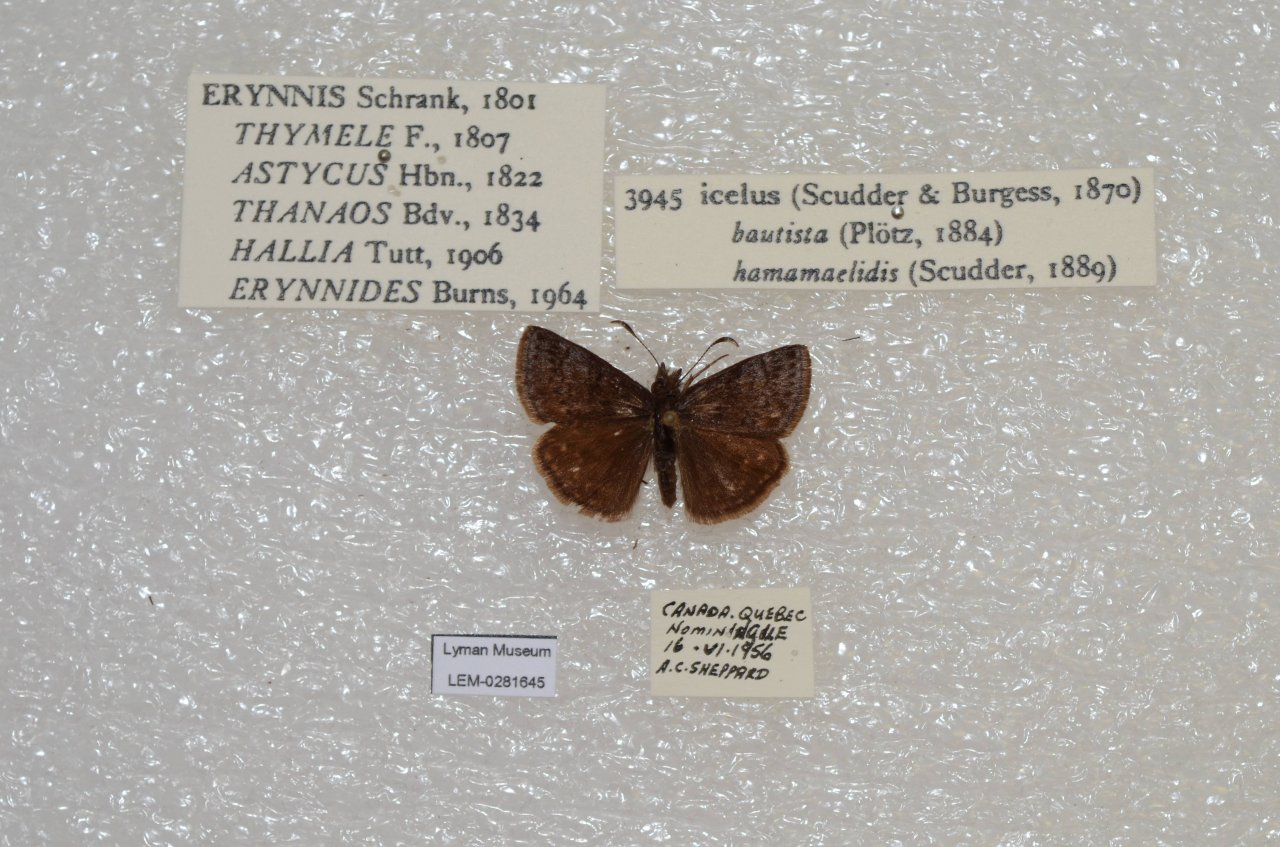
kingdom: Animalia
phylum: Arthropoda
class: Insecta
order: Lepidoptera
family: Hesperiidae
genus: Erynnis
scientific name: Erynnis icelus
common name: Dreamy Duskywing
